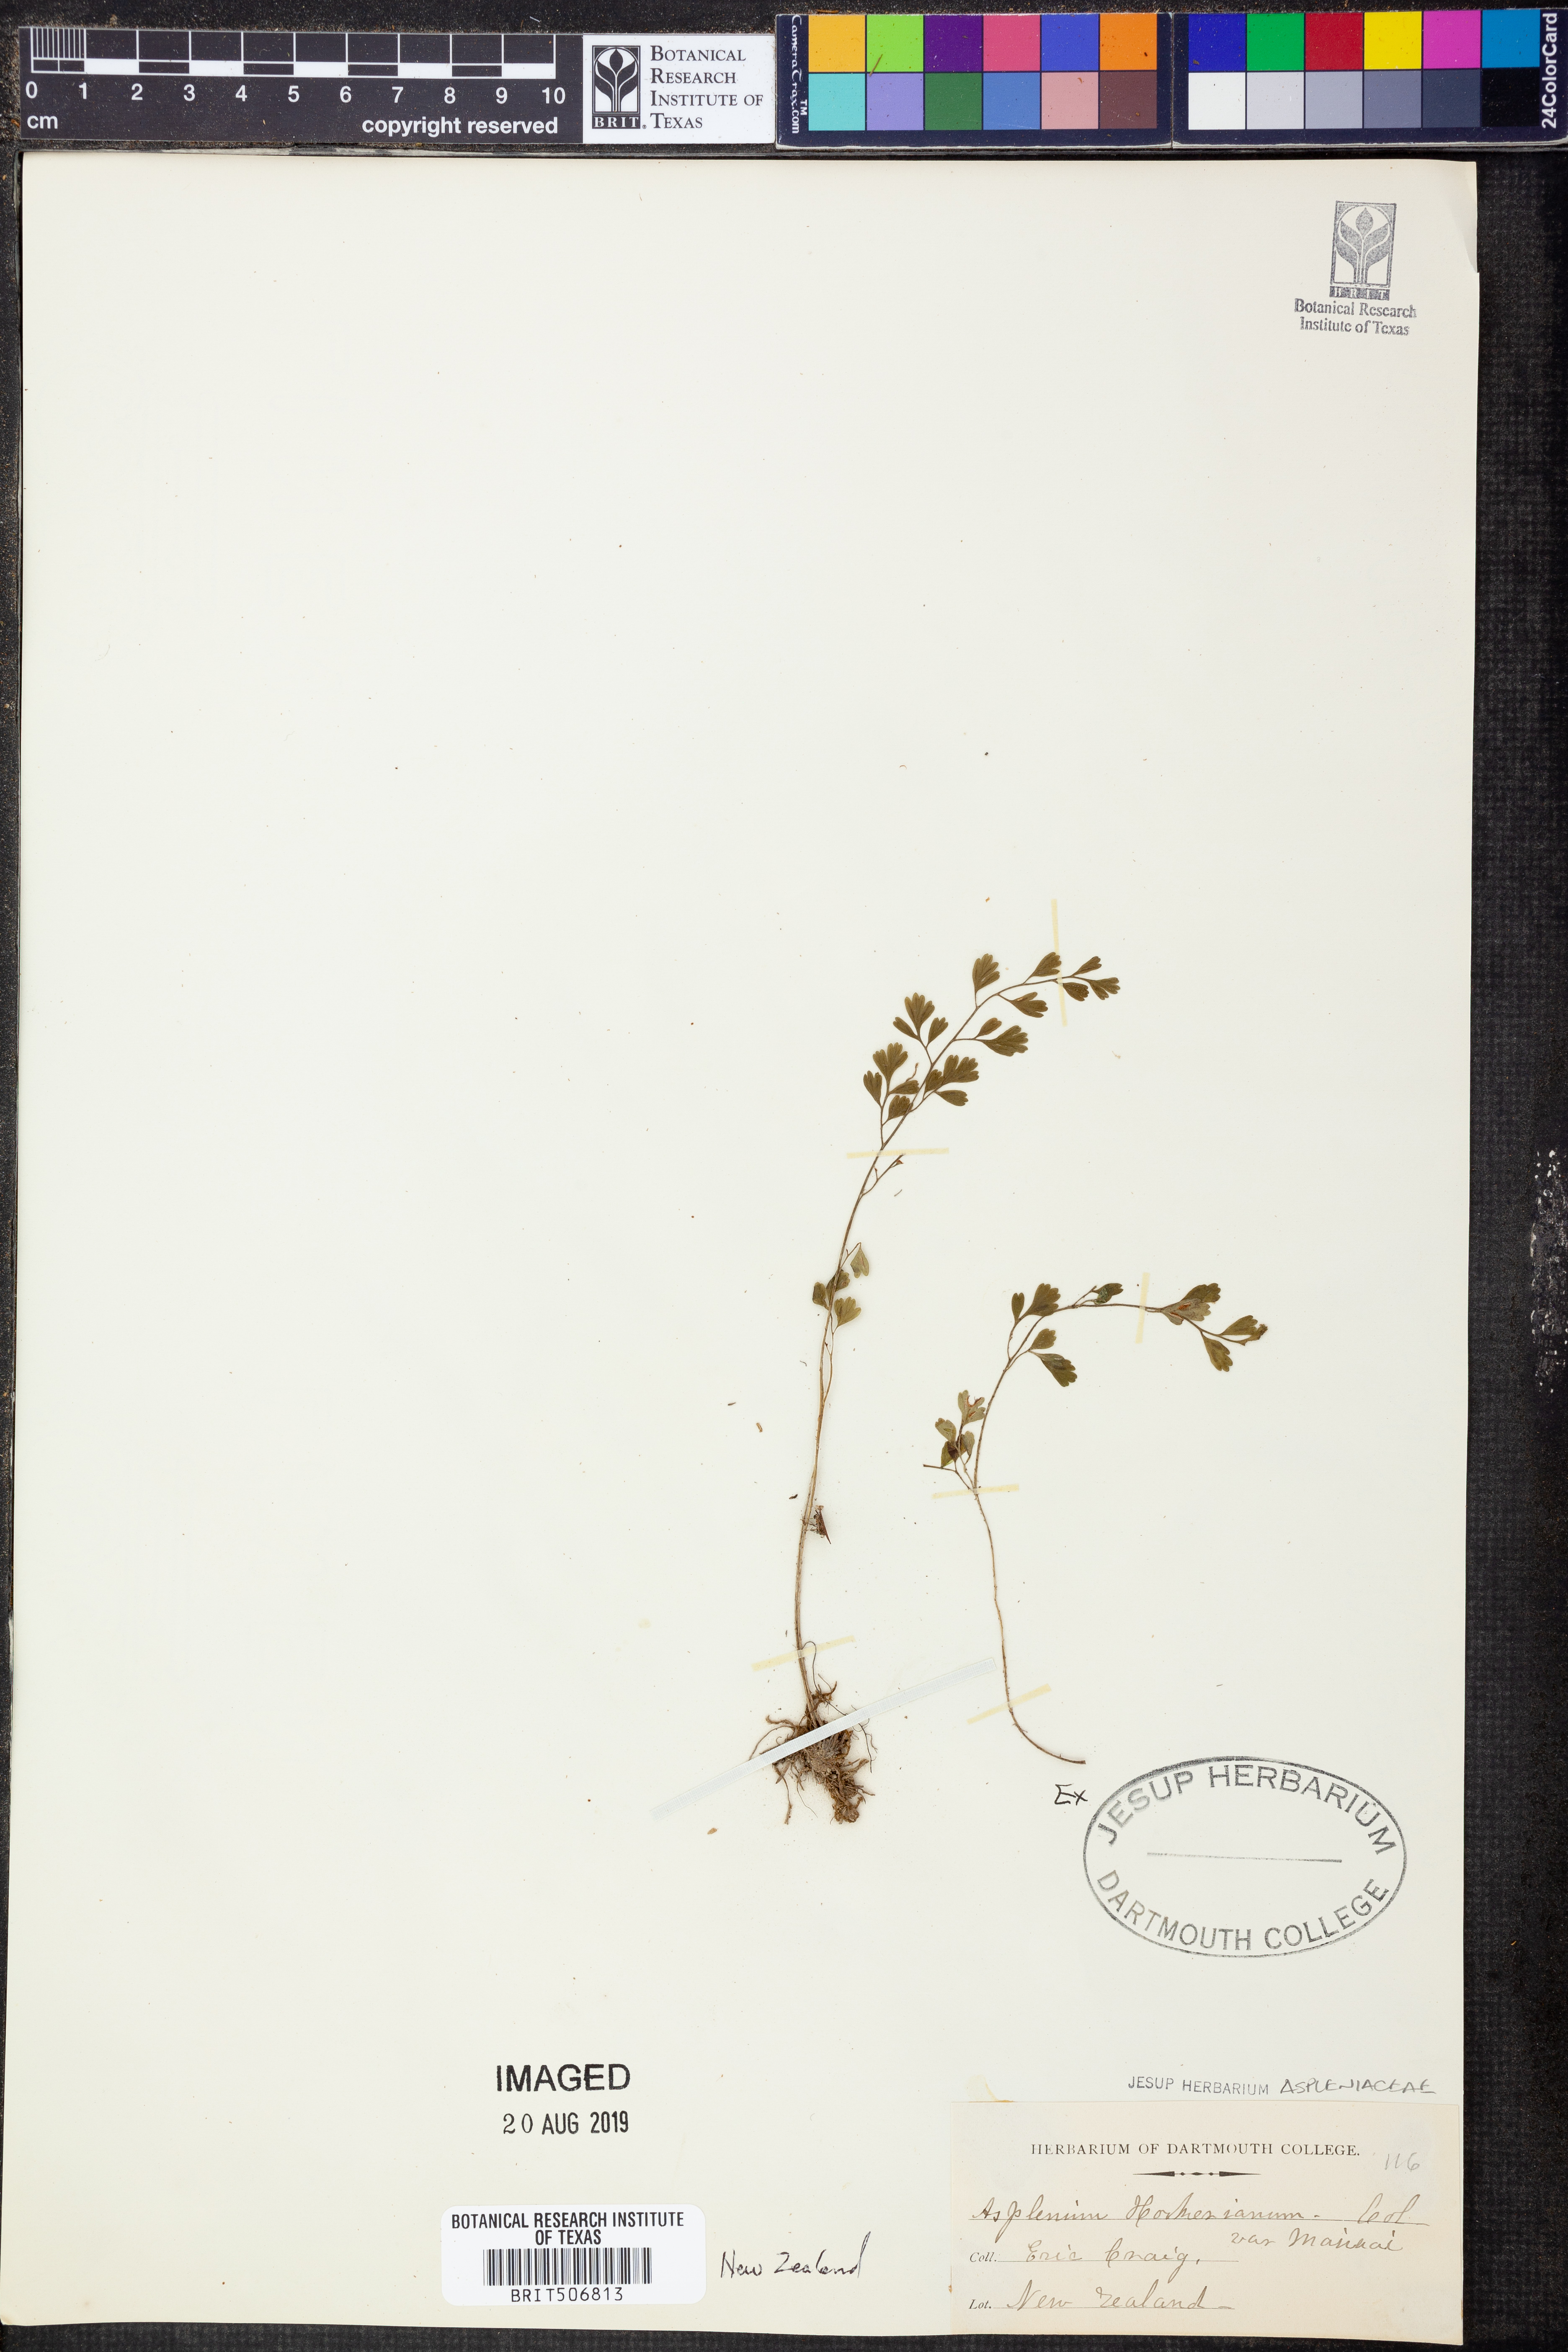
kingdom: Plantae
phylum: Tracheophyta
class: Polypodiopsida
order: Polypodiales
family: Aspleniaceae
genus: Asplenium
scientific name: Asplenium hookerianum
